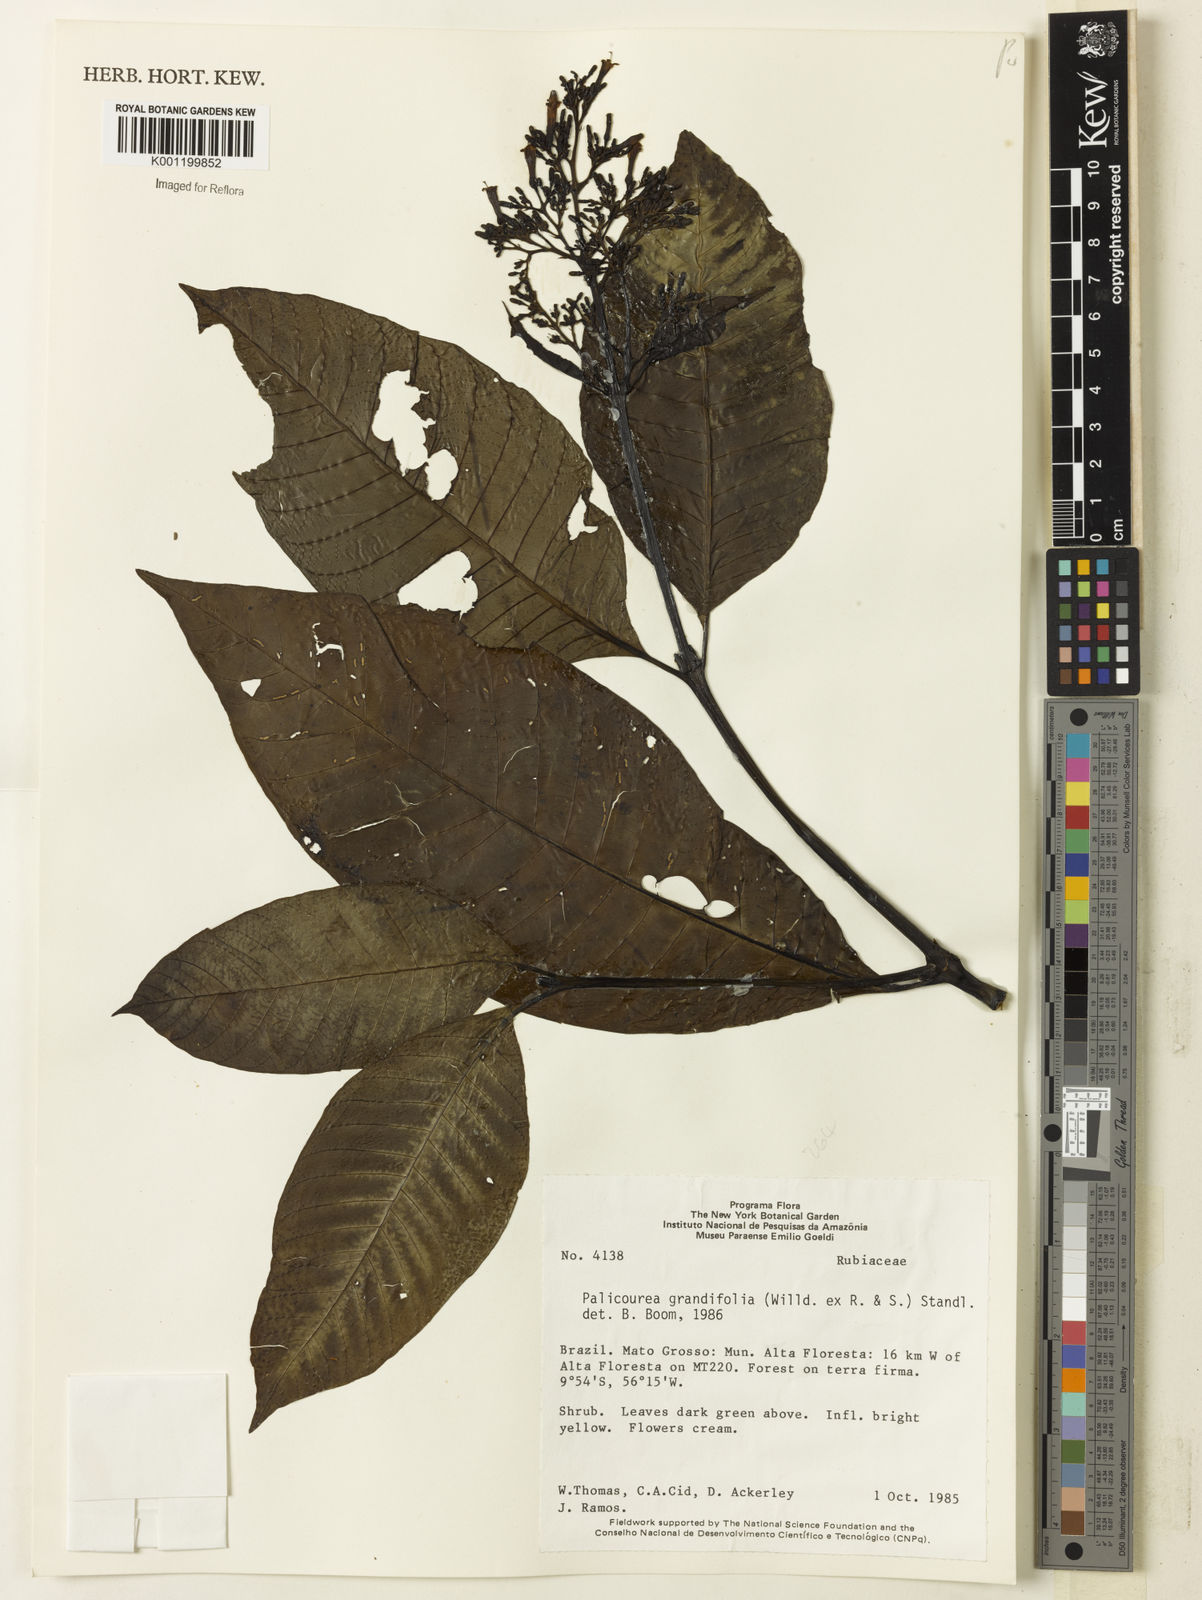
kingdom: Plantae
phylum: Tracheophyta
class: Magnoliopsida
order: Gentianales
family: Rubiaceae
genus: Palicourea
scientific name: Palicourea grandifolia
